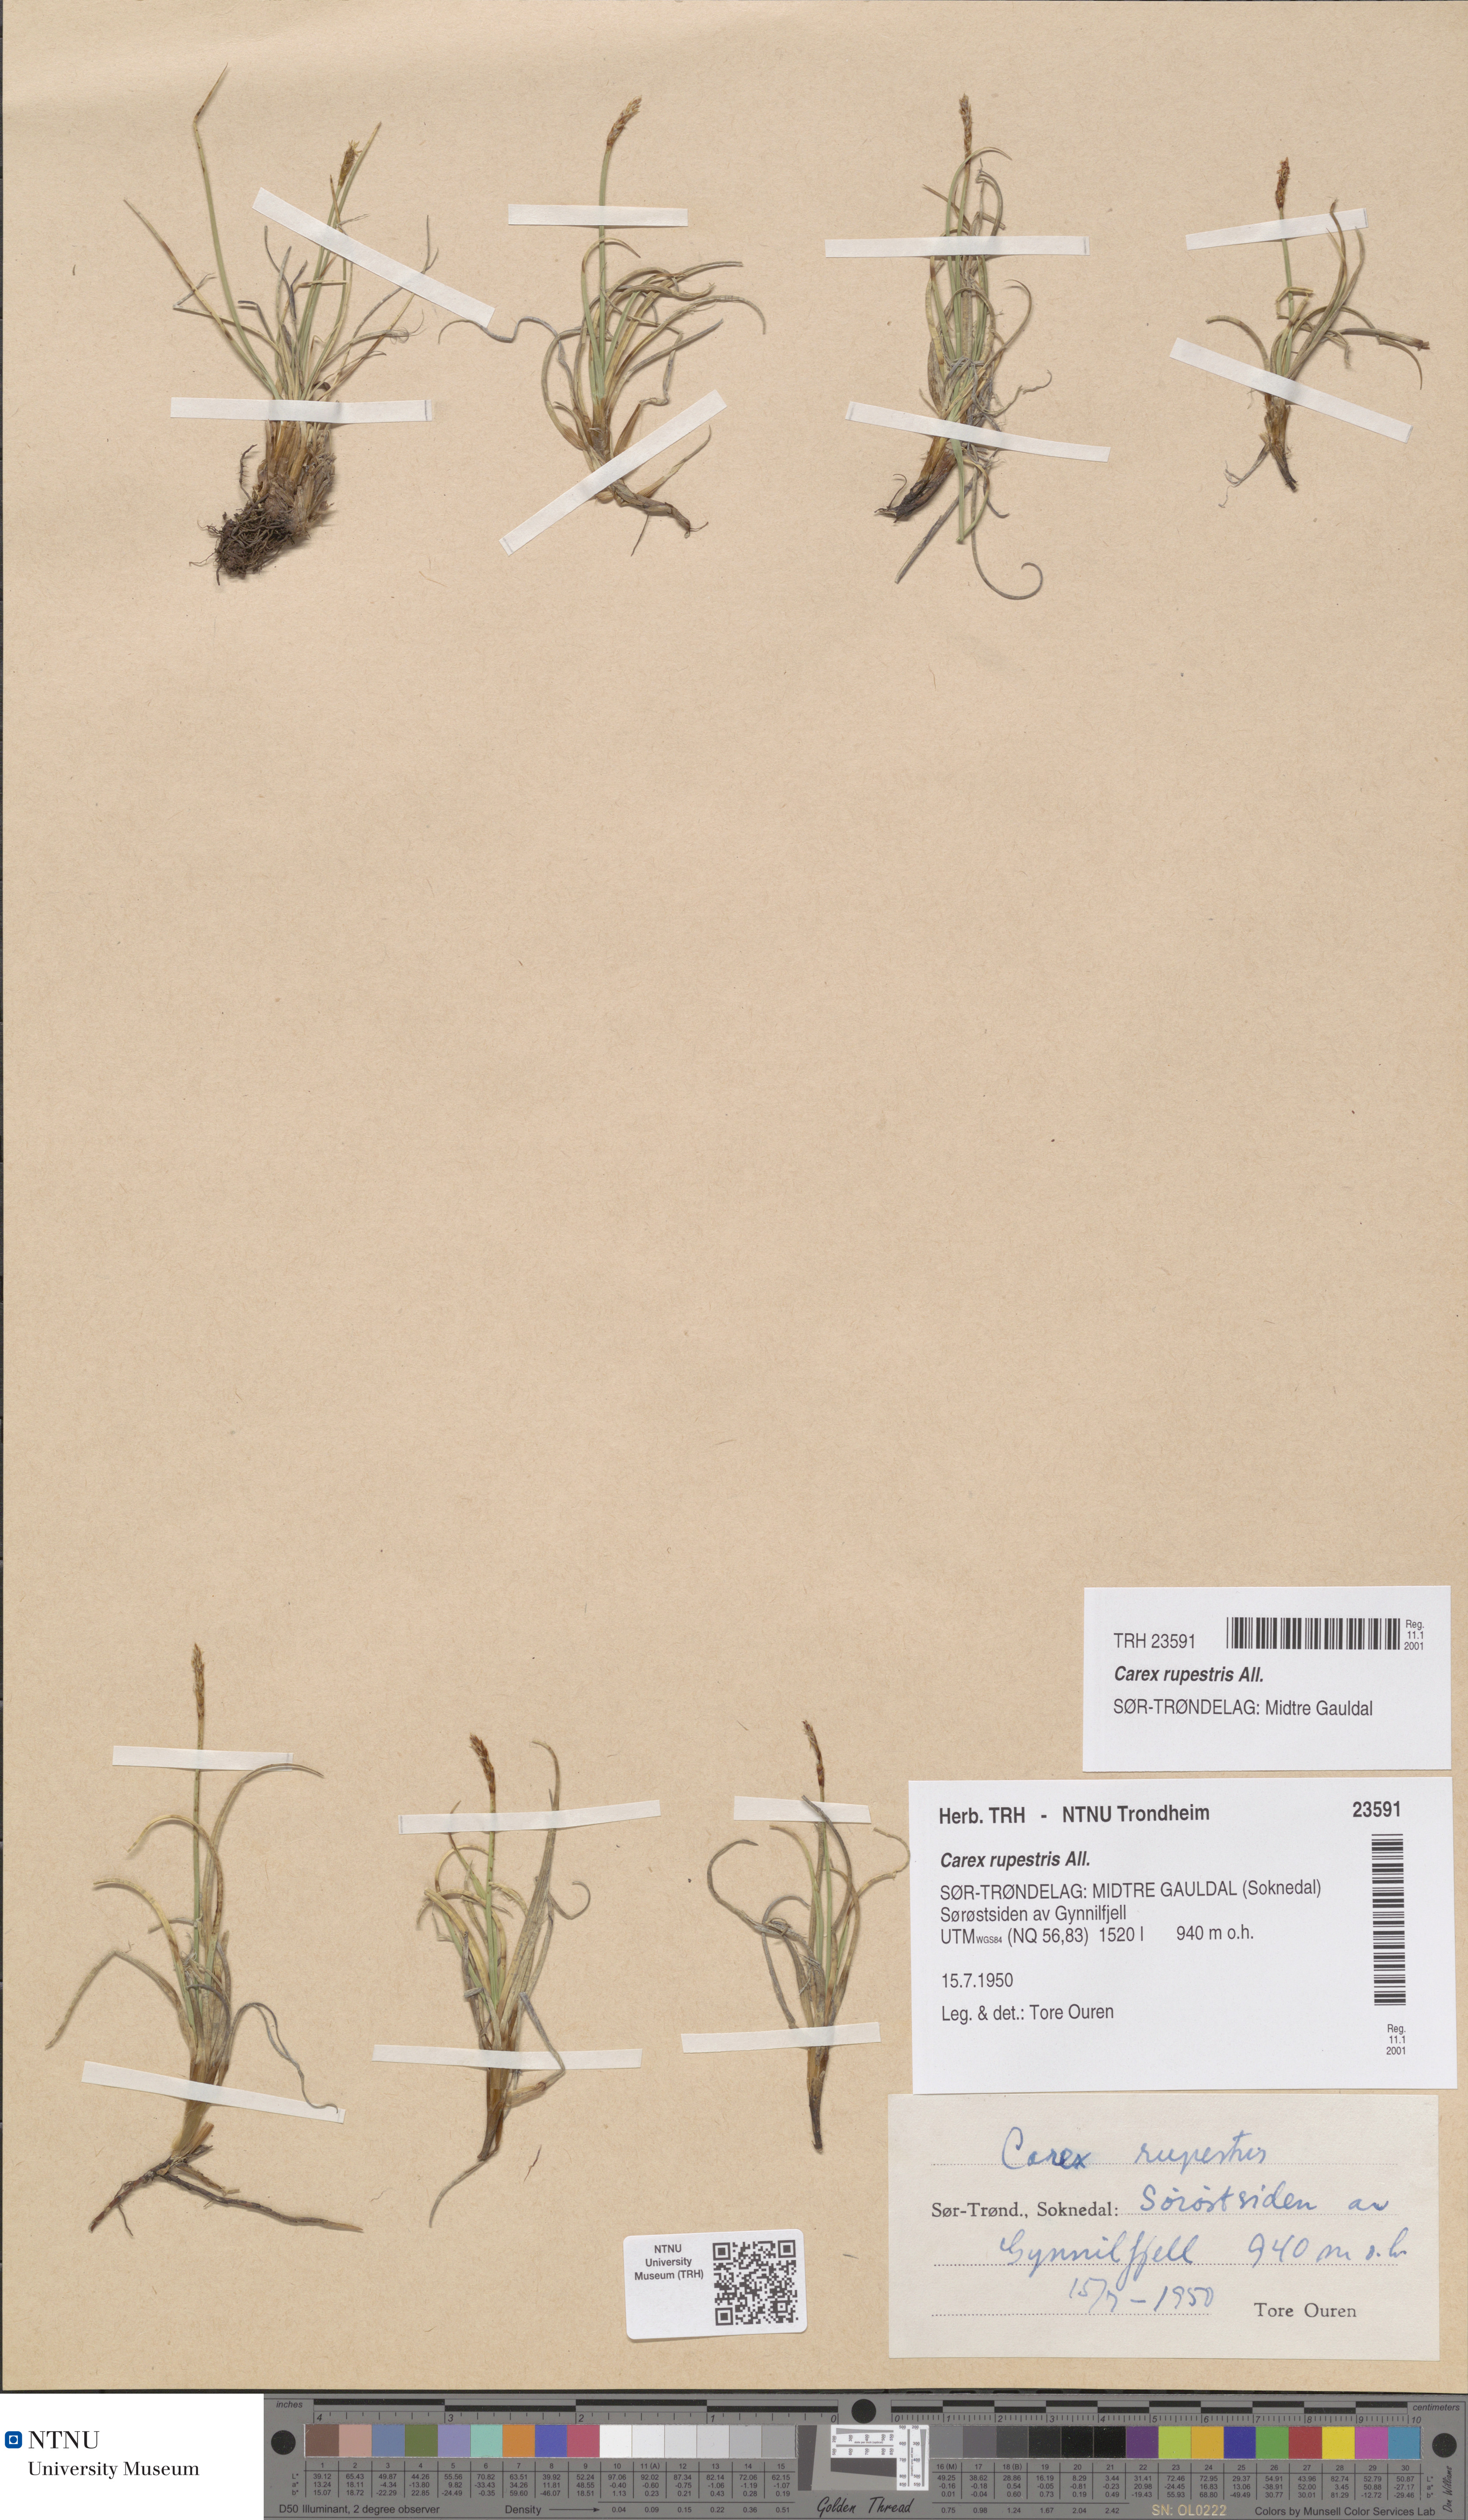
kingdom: Plantae
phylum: Tracheophyta
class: Liliopsida
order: Poales
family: Cyperaceae
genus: Carex
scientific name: Carex rupestris
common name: Rock sedge
